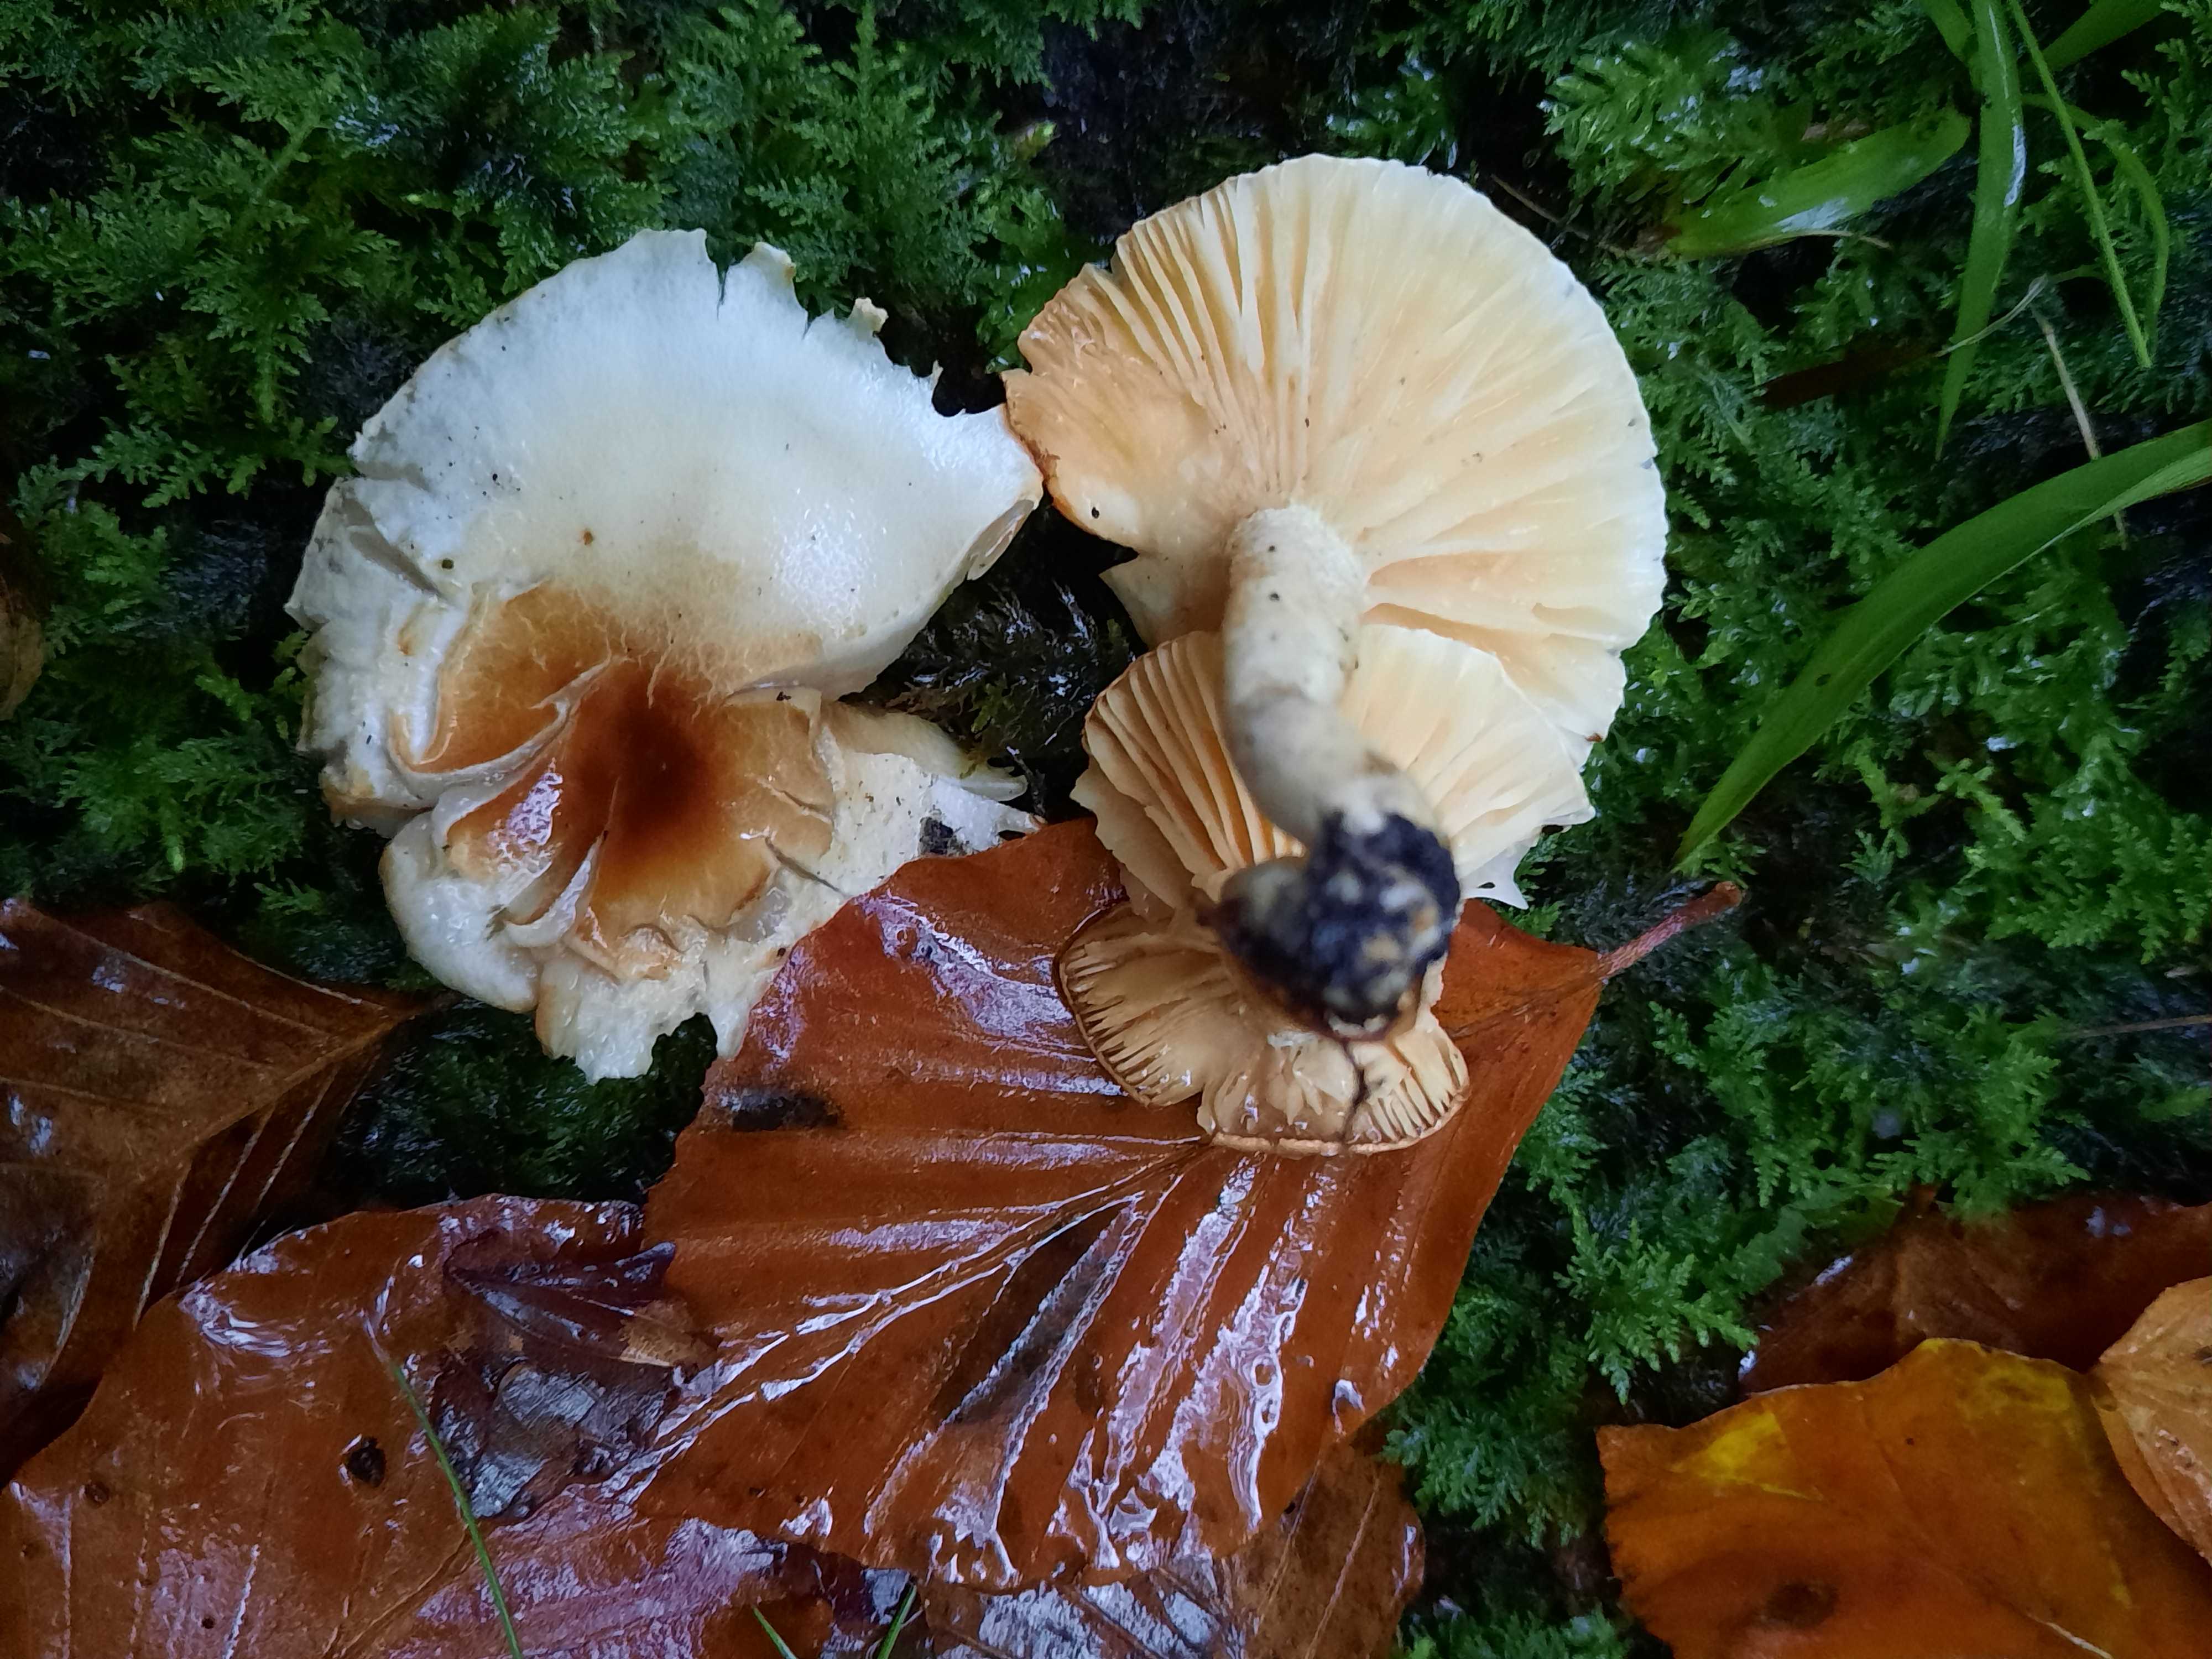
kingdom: Fungi
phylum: Basidiomycota
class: Agaricomycetes
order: Agaricales
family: Hygrophoraceae
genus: Hygrophorus
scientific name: Hygrophorus discoxanthus
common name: ildelugtende sneglehat
